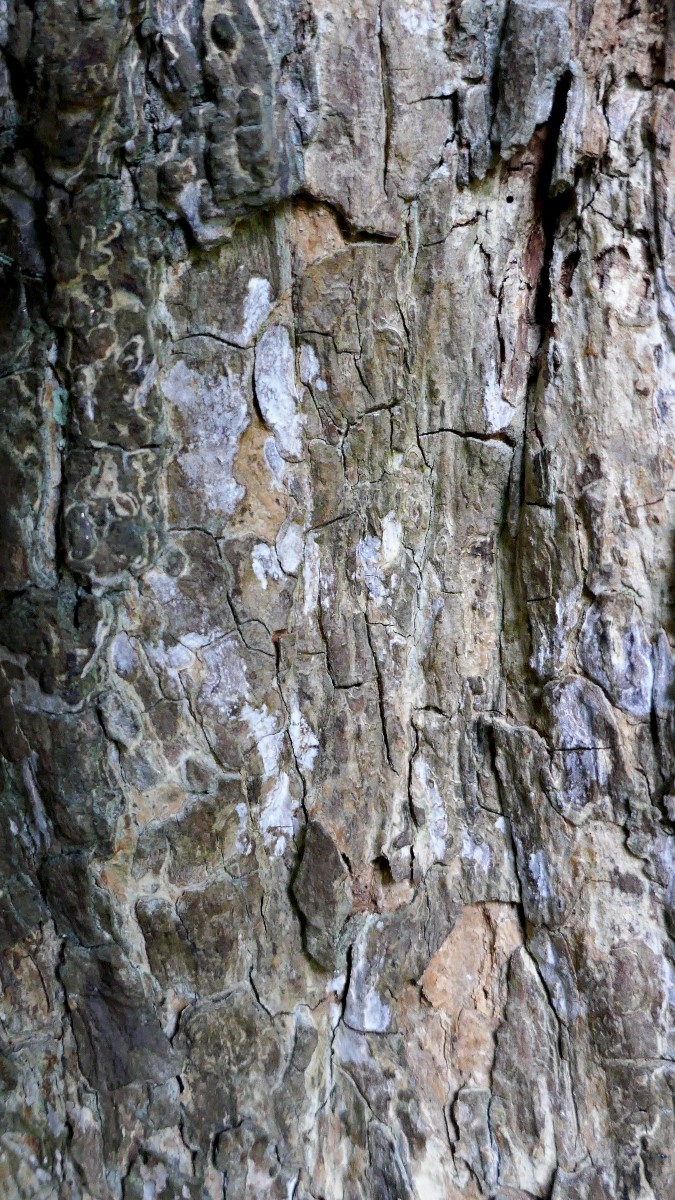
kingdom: Fungi
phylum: Basidiomycota
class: Agaricomycetes
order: Agaricales
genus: Dendrothele
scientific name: Dendrothele acerina
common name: navr-kalkplet
